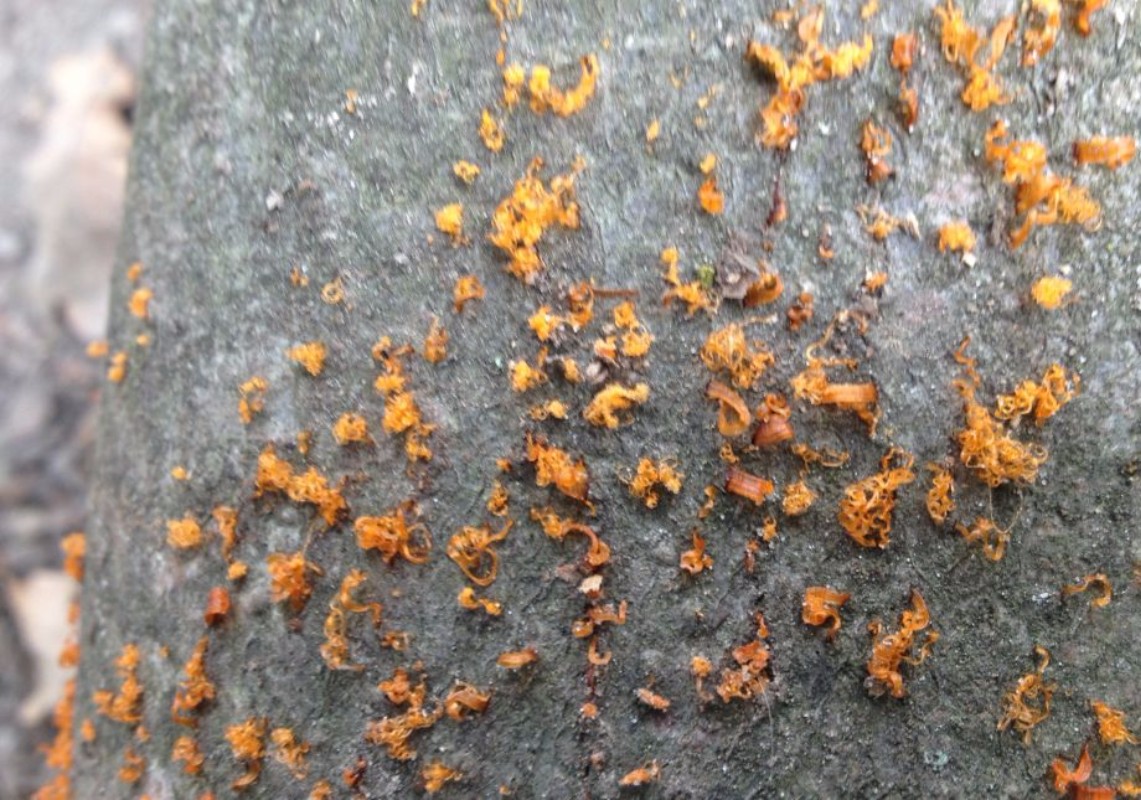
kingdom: Fungi
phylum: Ascomycota
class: Sordariomycetes
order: Xylariales
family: Diatrypaceae
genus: Eutypella
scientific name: Eutypella quaternata
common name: bøge-korsprik
